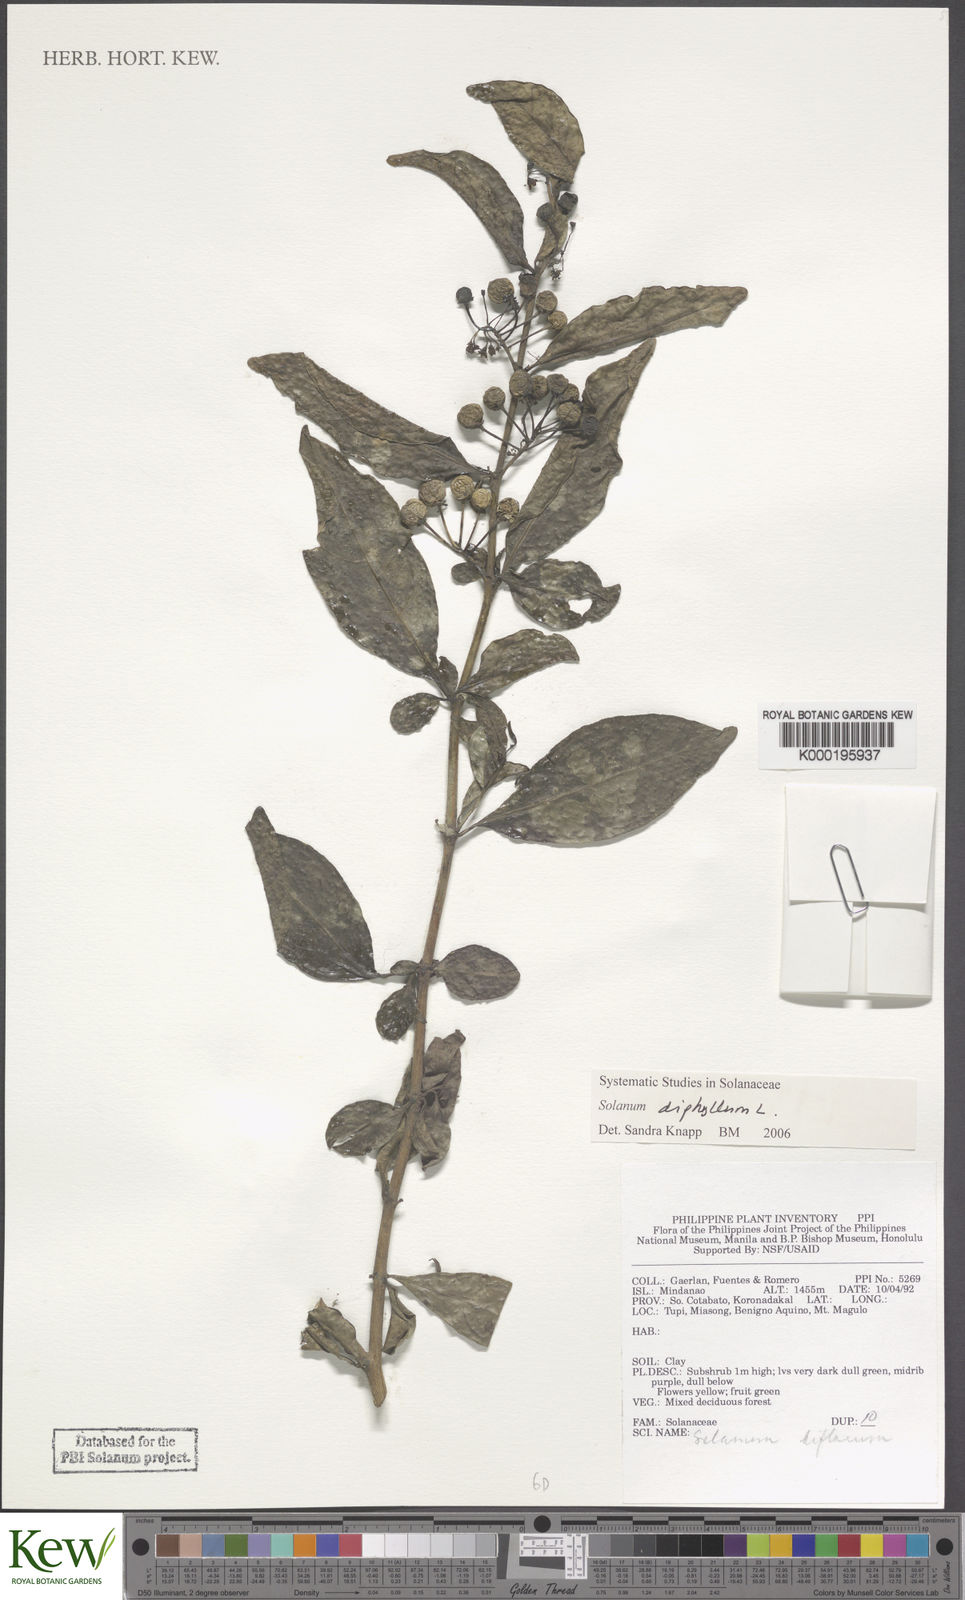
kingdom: Plantae
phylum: Tracheophyta
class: Magnoliopsida
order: Solanales
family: Solanaceae
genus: Solanum
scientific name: Solanum diphyllum
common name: Twoleaf nightshade
